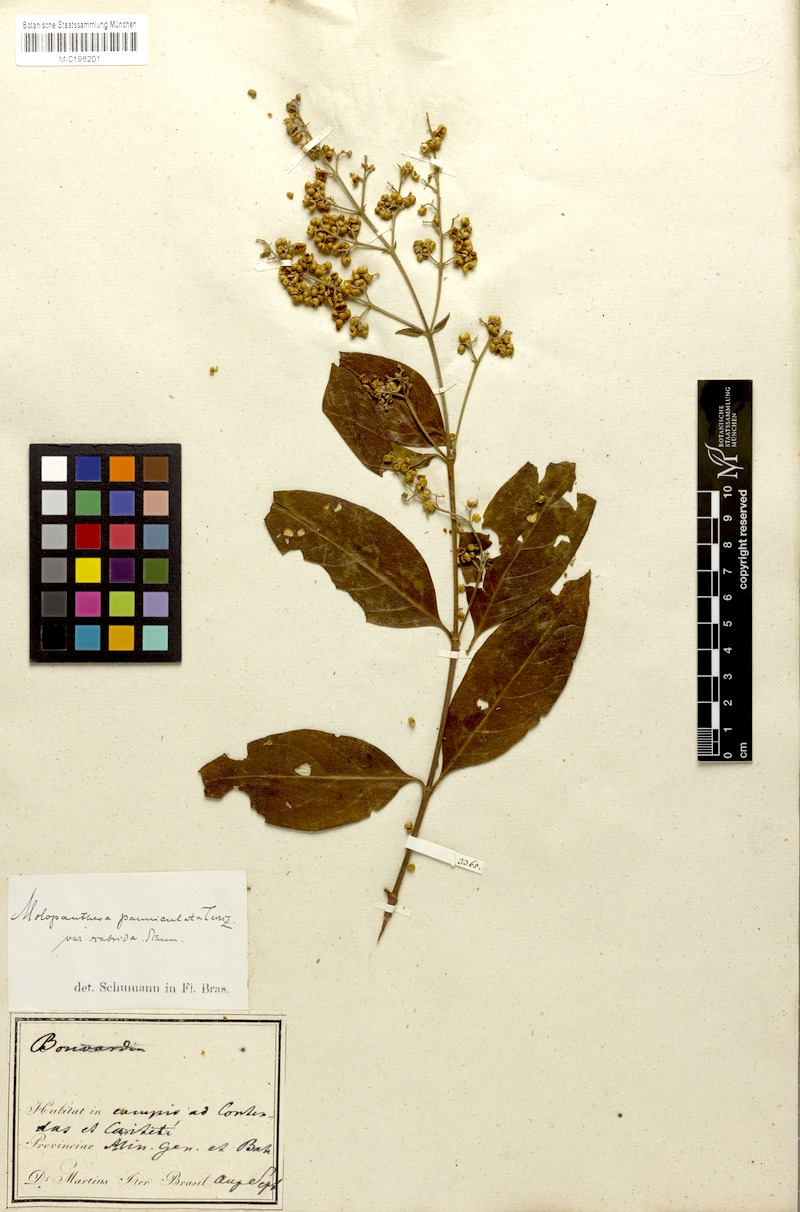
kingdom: Plantae
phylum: Tracheophyta
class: Magnoliopsida
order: Gentianales
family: Rubiaceae
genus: Molopanthera
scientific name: Molopanthera paniculata
